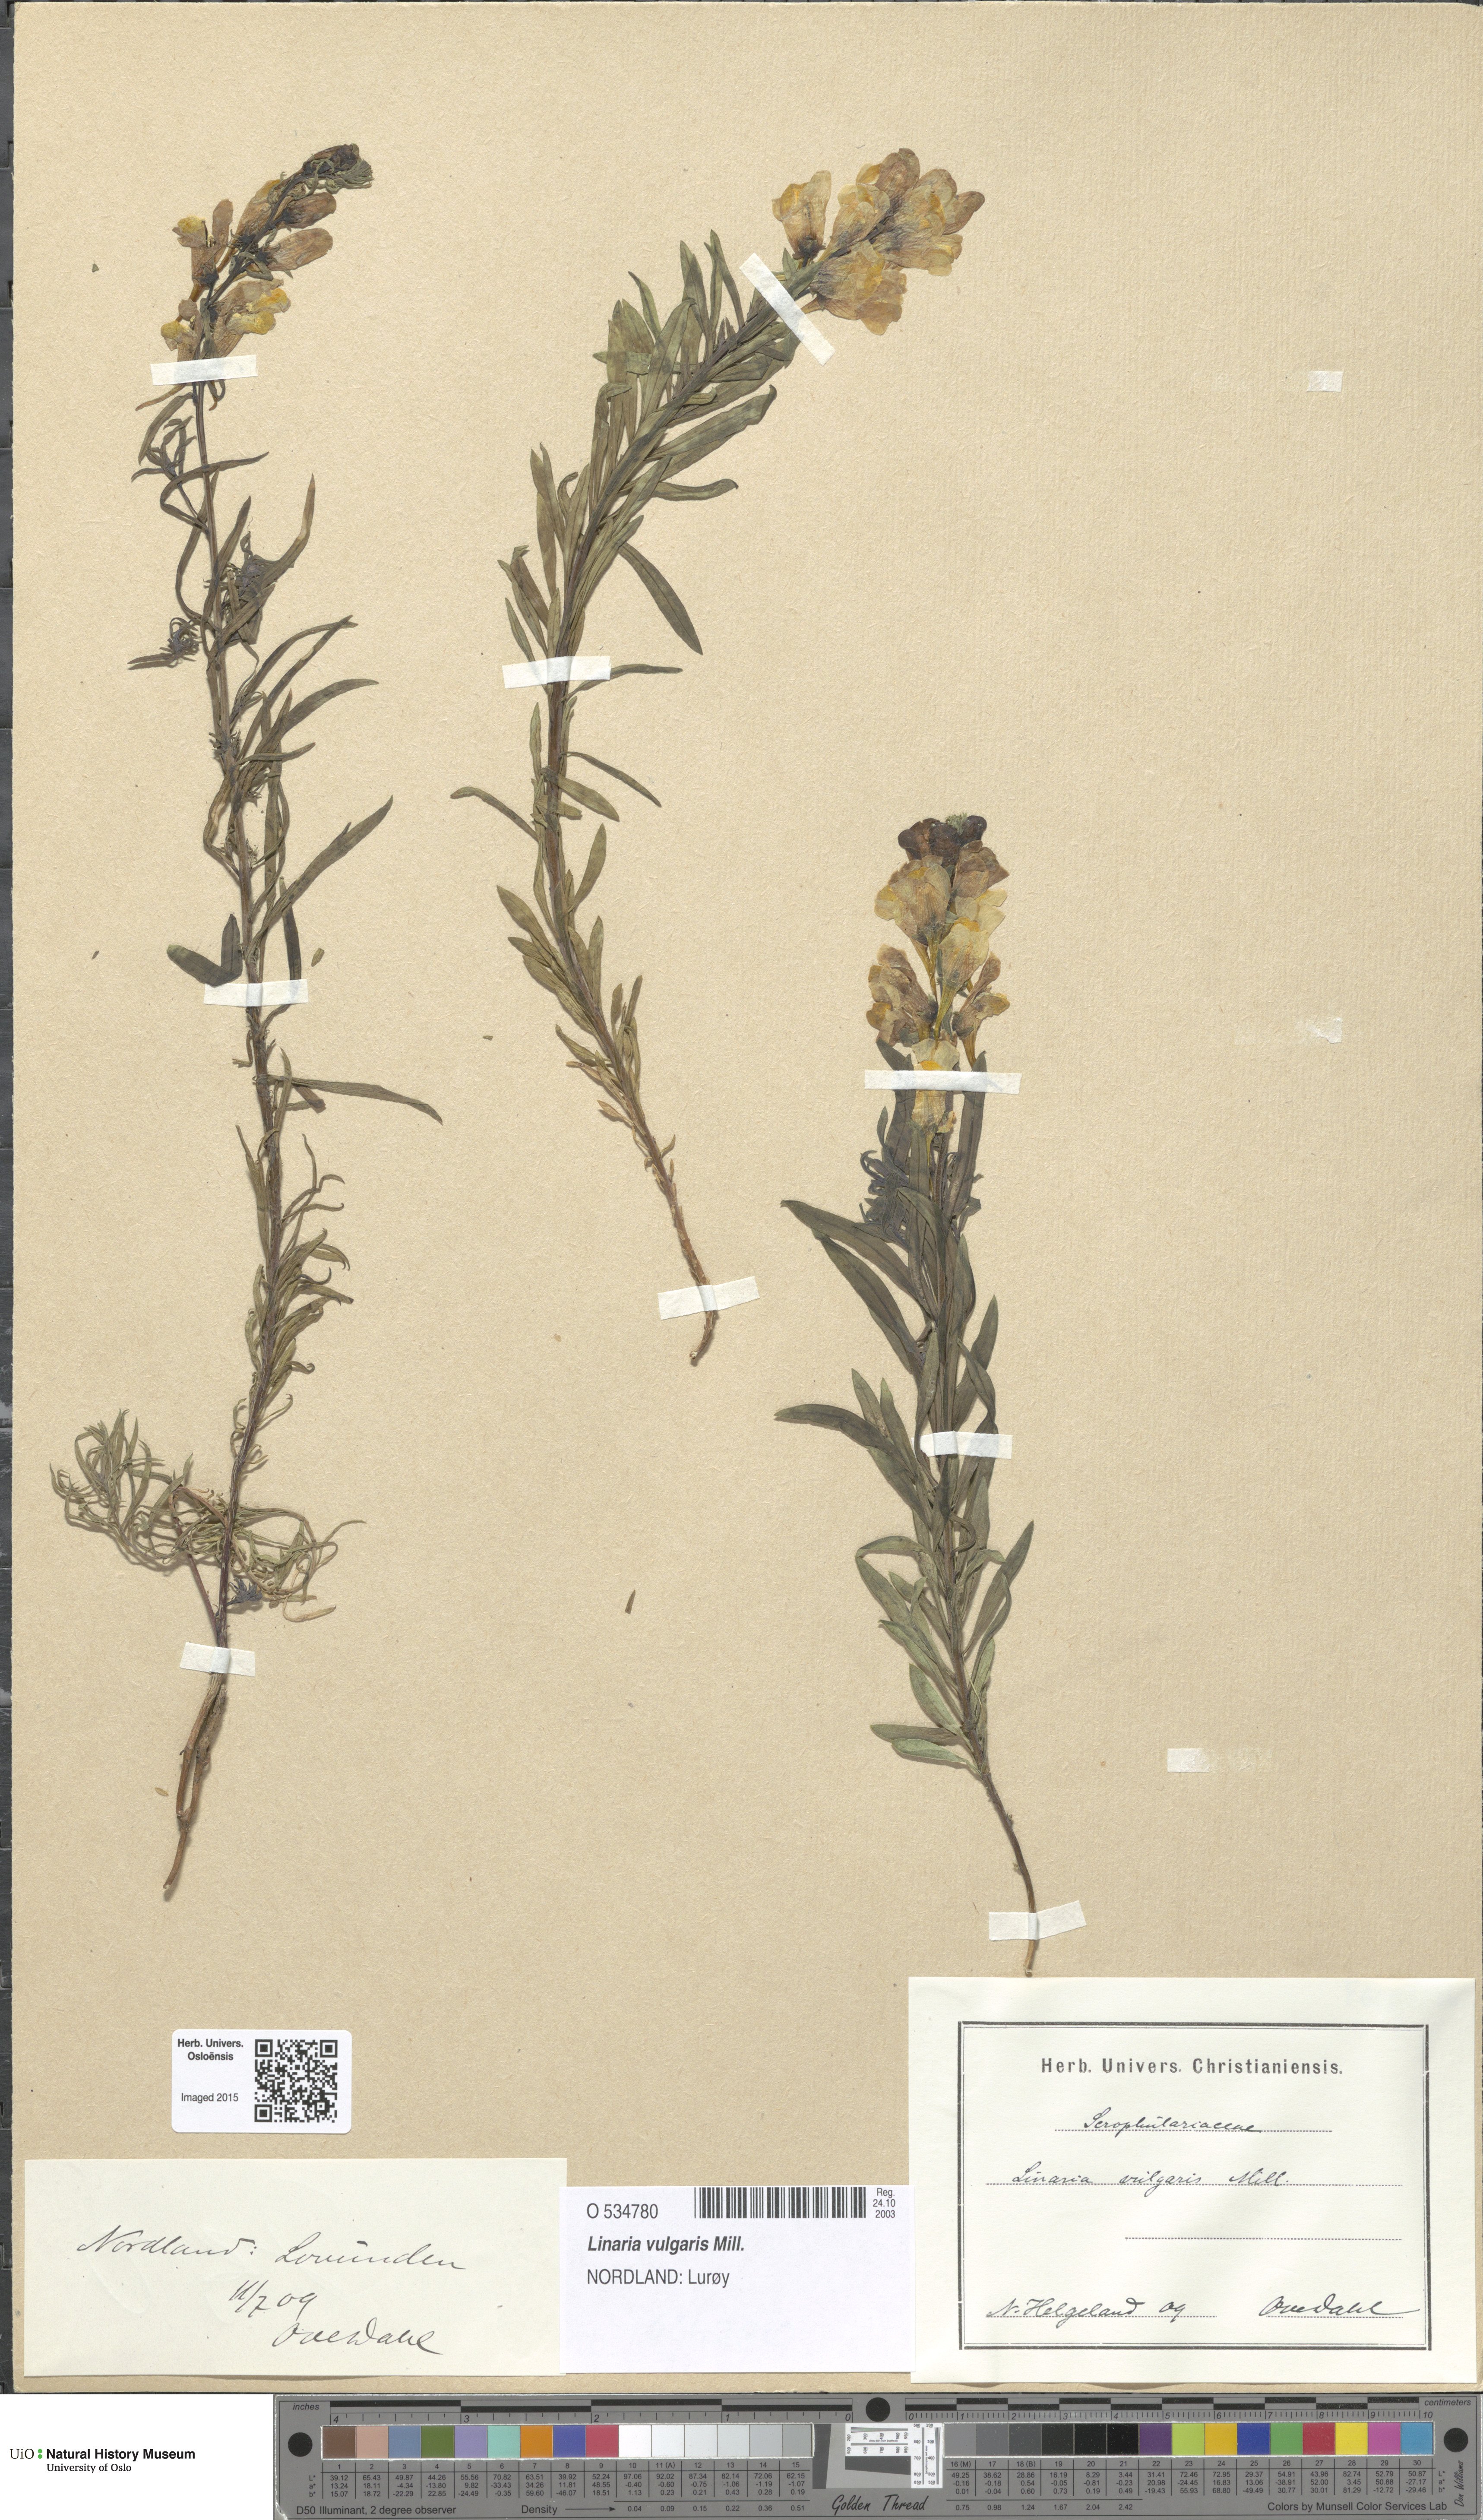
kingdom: Plantae
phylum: Tracheophyta
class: Magnoliopsida
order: Lamiales
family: Plantaginaceae
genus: Linaria
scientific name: Linaria vulgaris
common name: Butter and eggs
